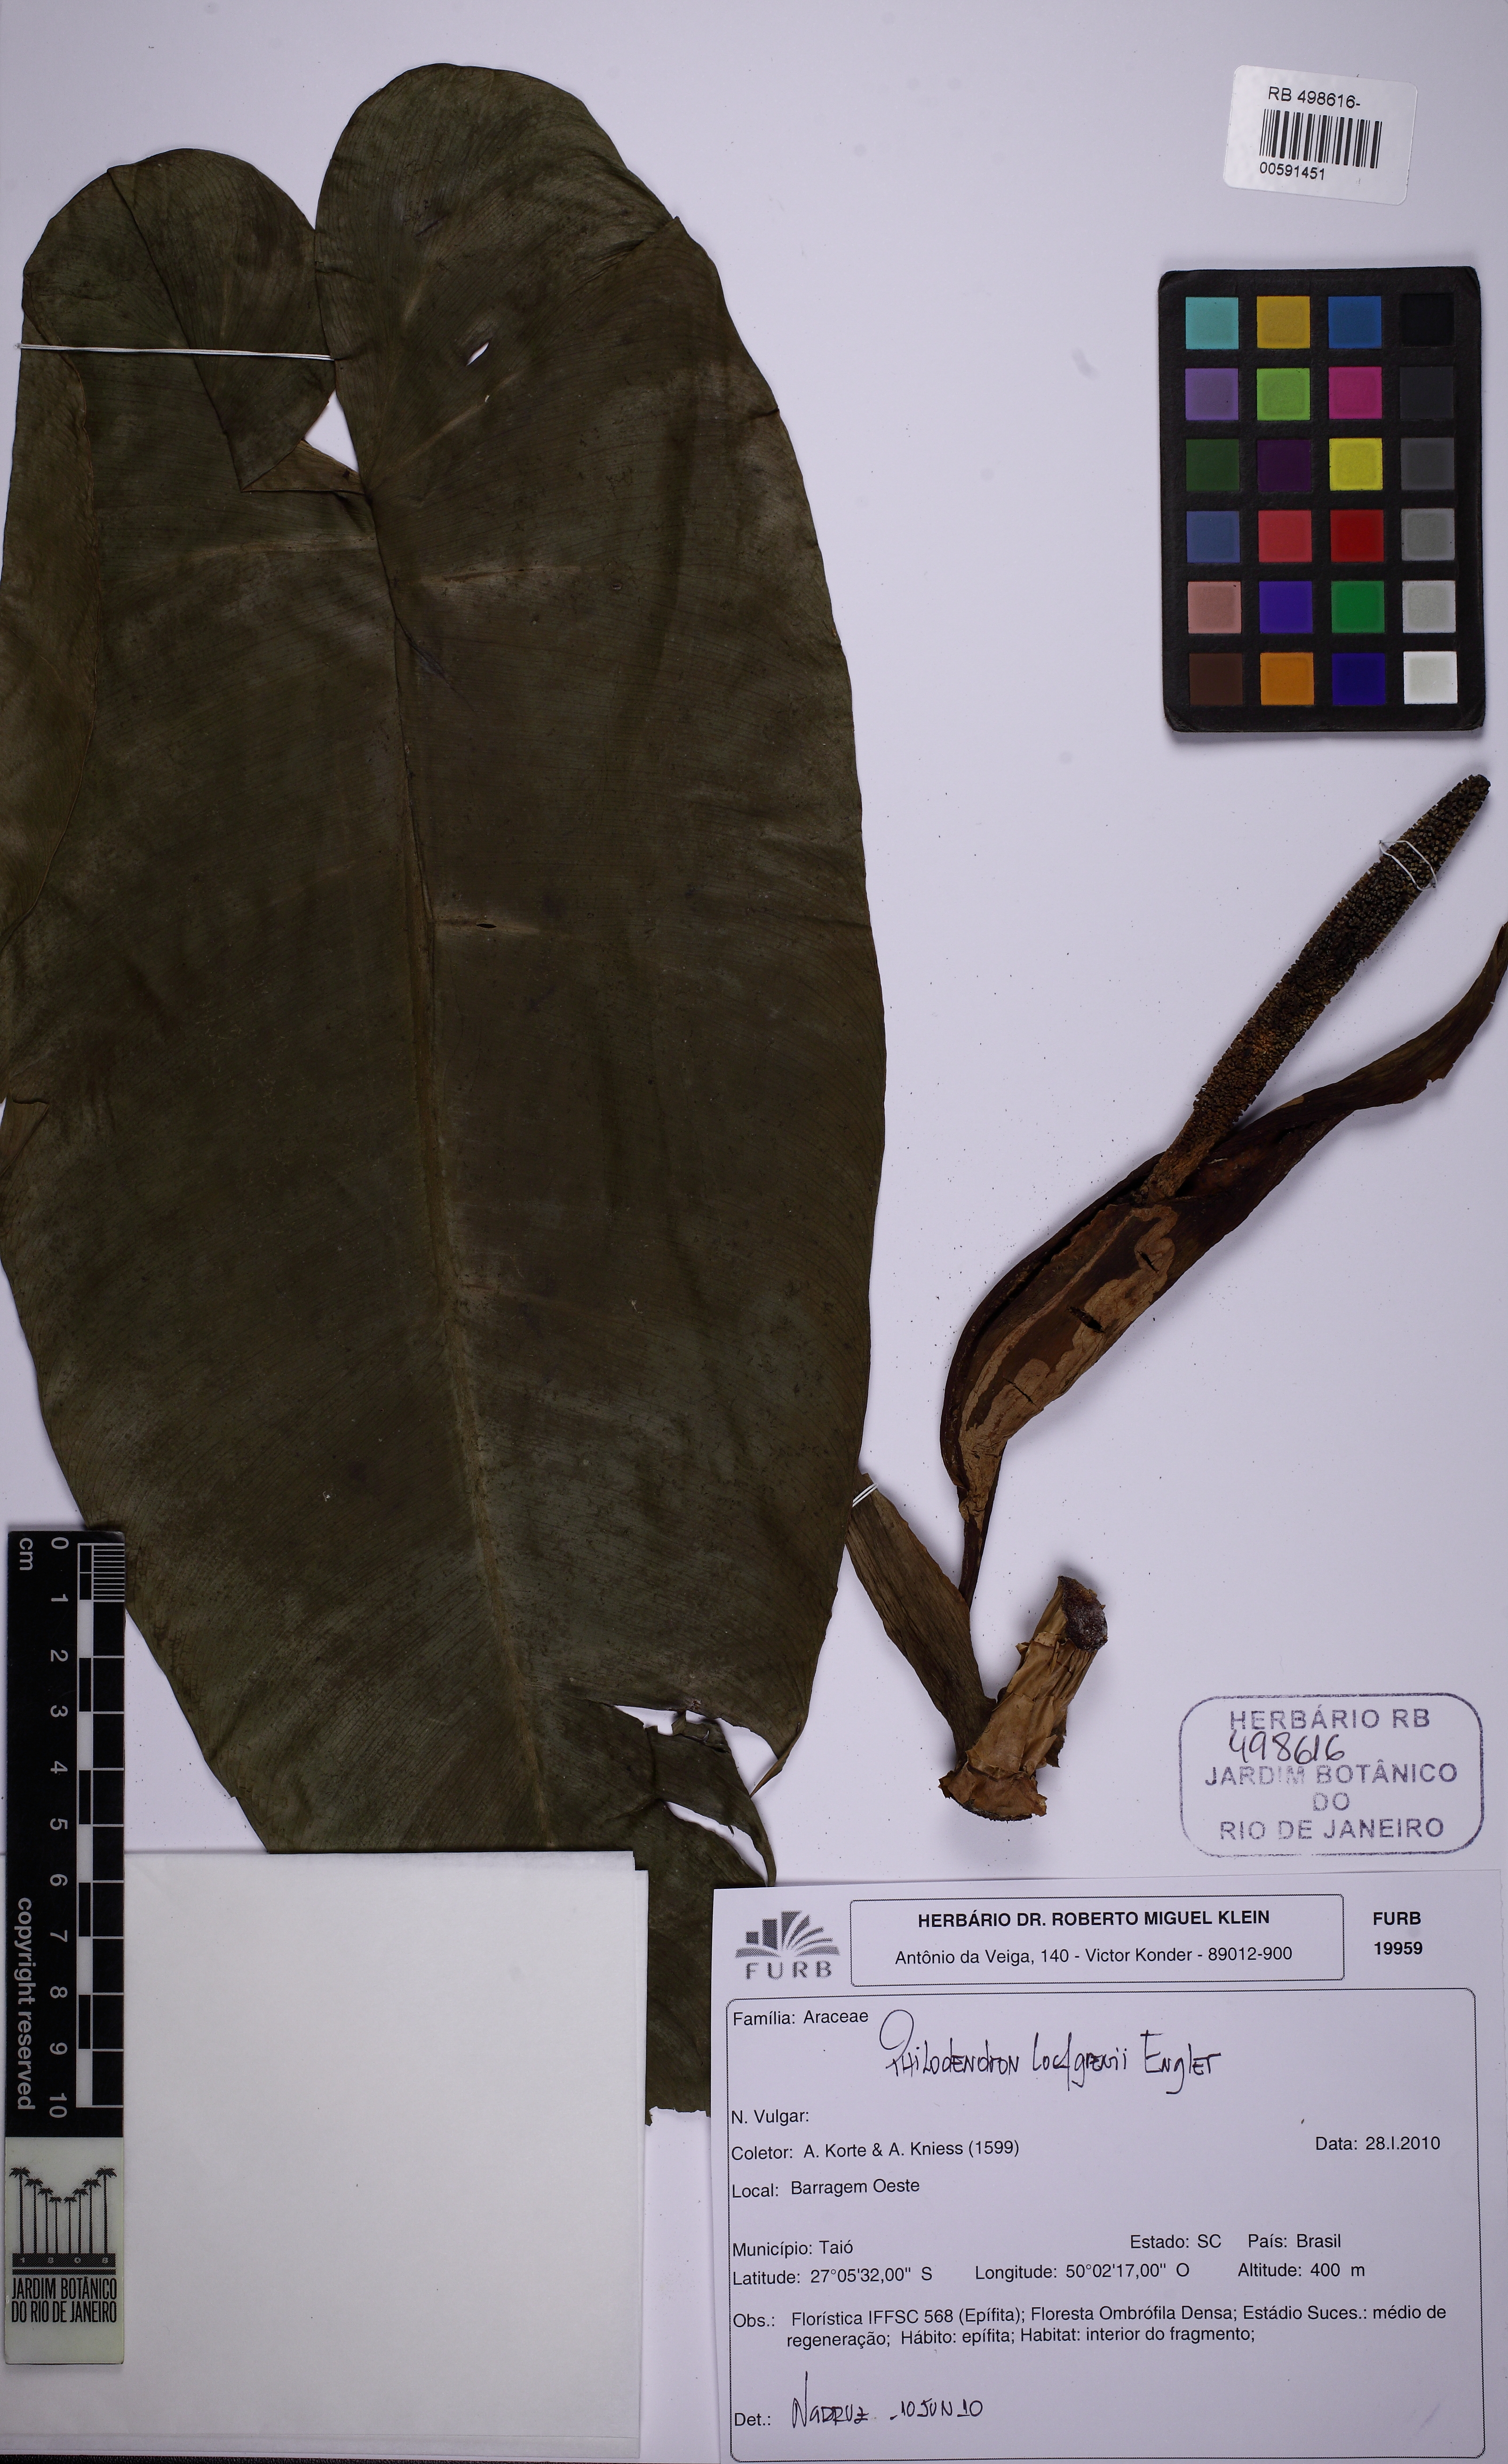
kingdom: Plantae
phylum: Tracheophyta
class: Liliopsida
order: Alismatales
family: Araceae
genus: Philodendron
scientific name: Philodendron loefgrenii
